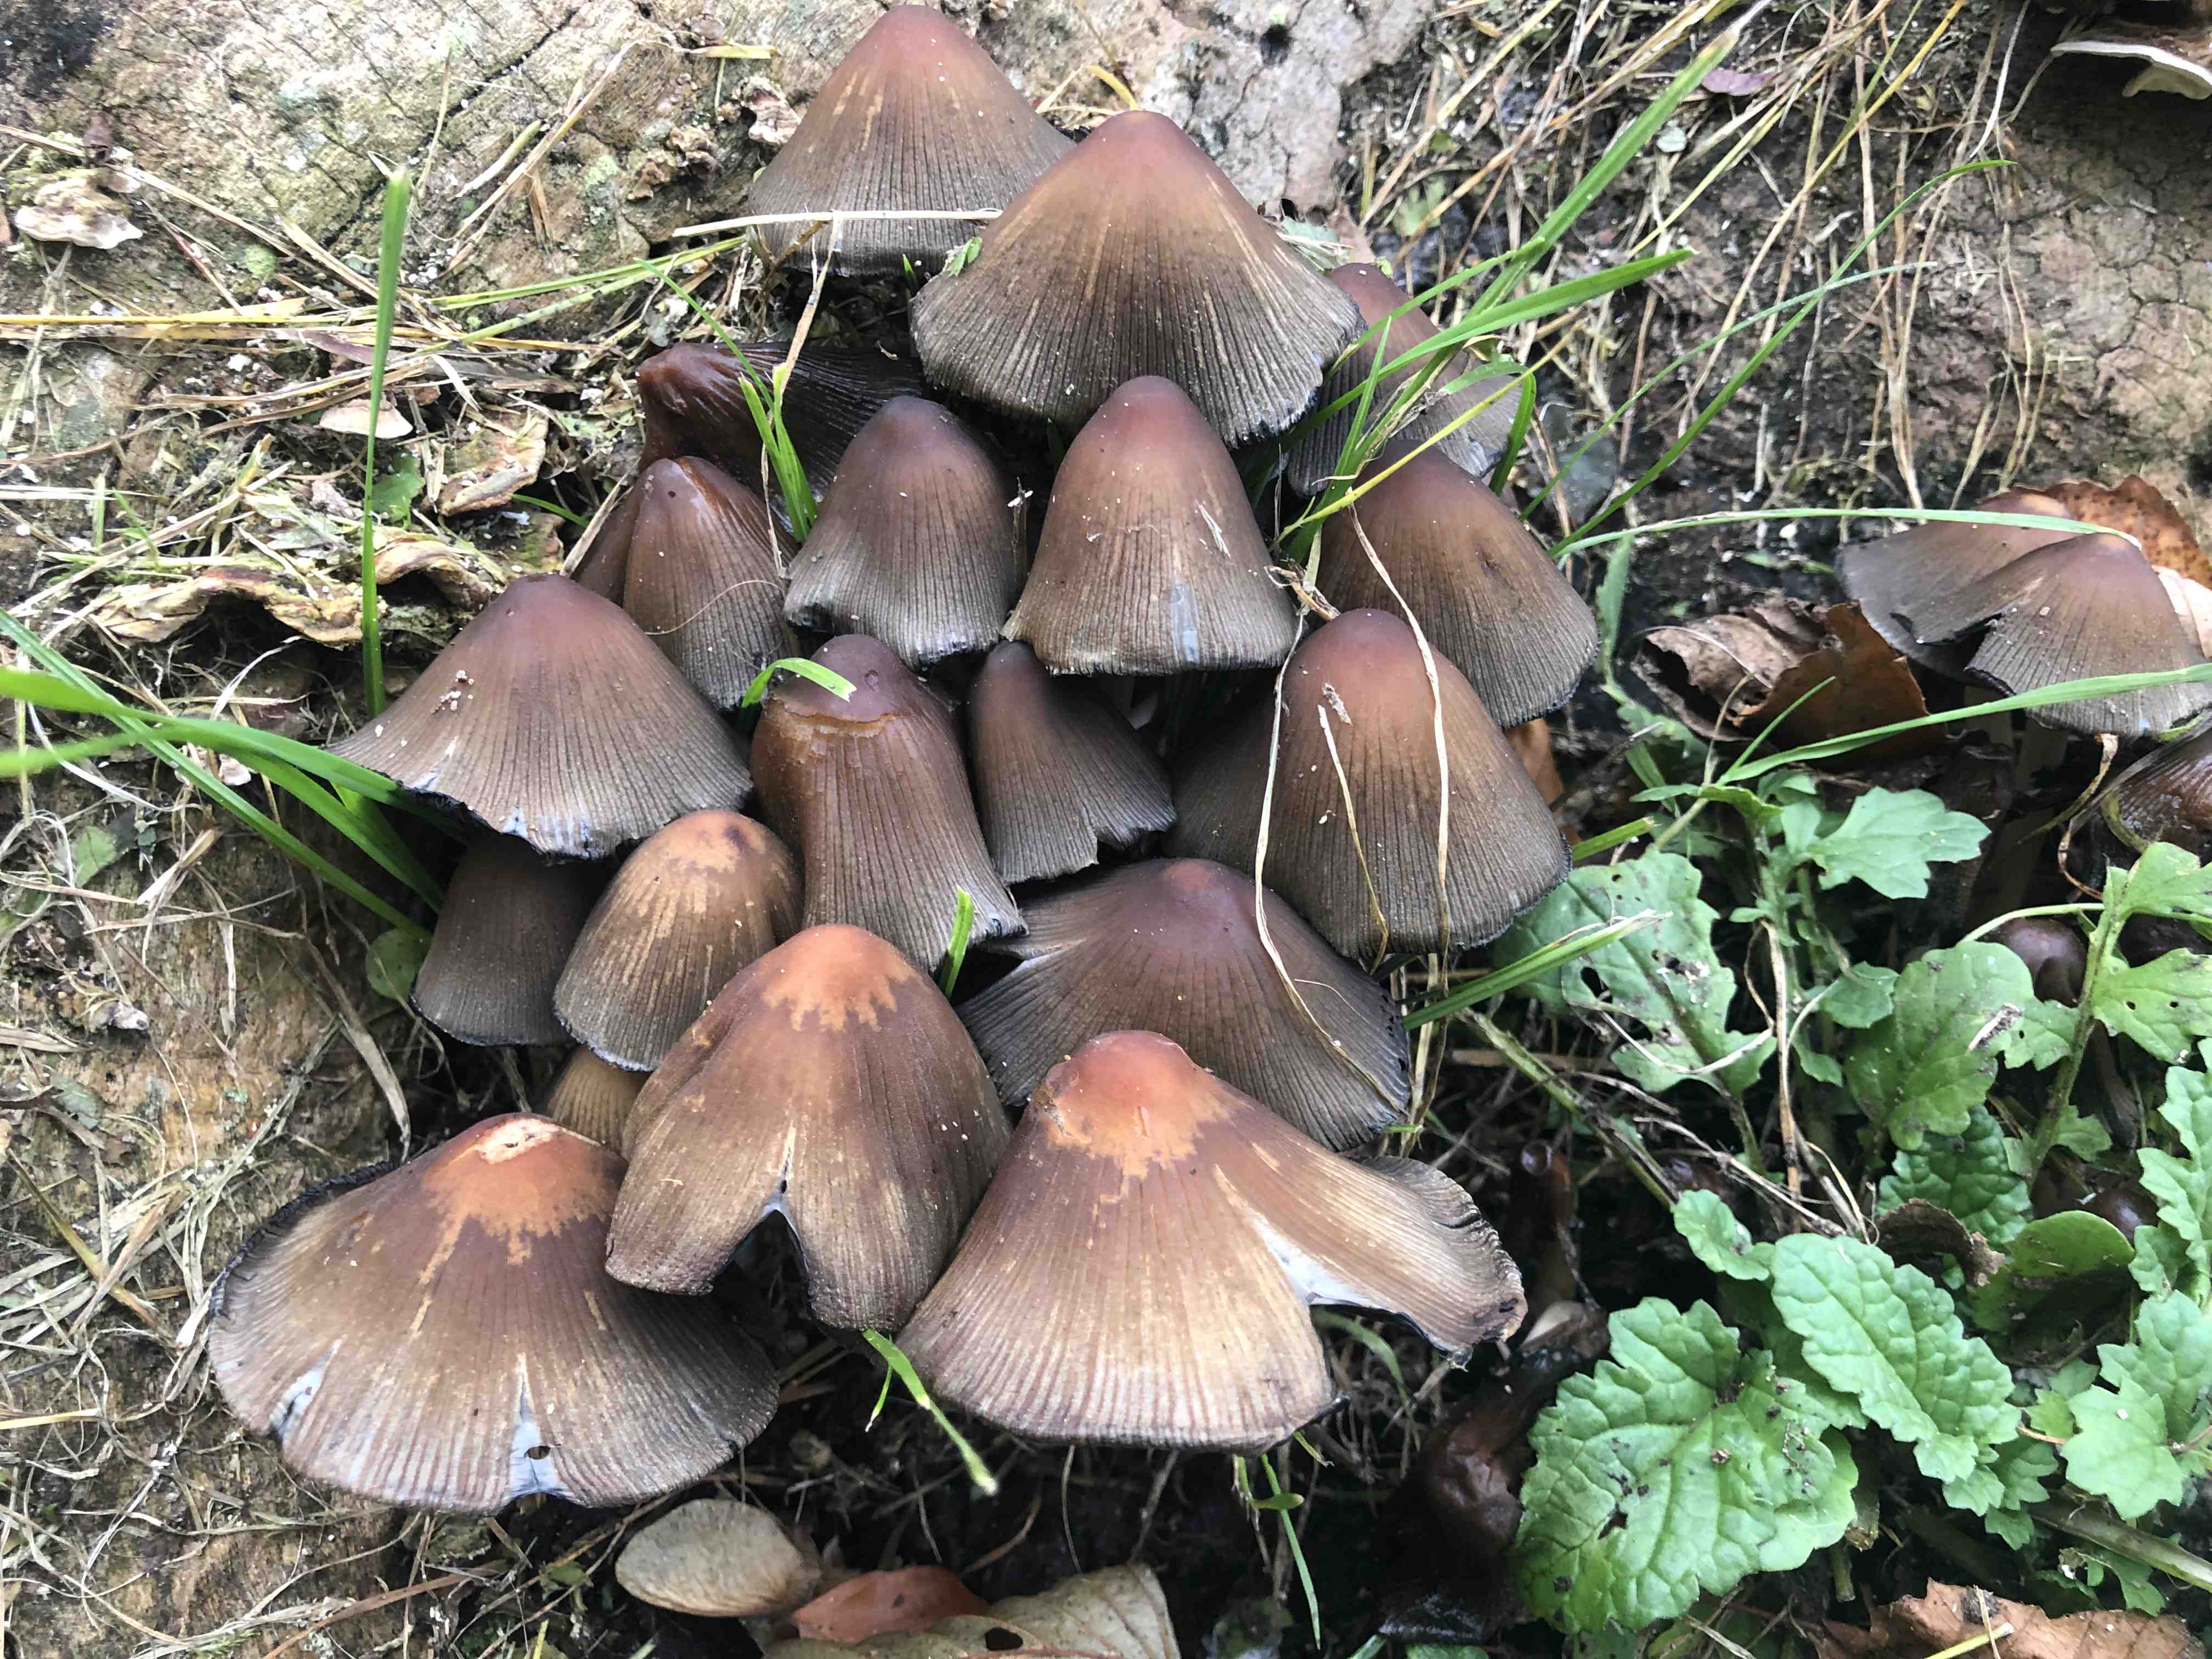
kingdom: Fungi
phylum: Basidiomycota
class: Agaricomycetes
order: Agaricales
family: Psathyrellaceae
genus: Coprinellus
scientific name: Coprinellus
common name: blækhat
